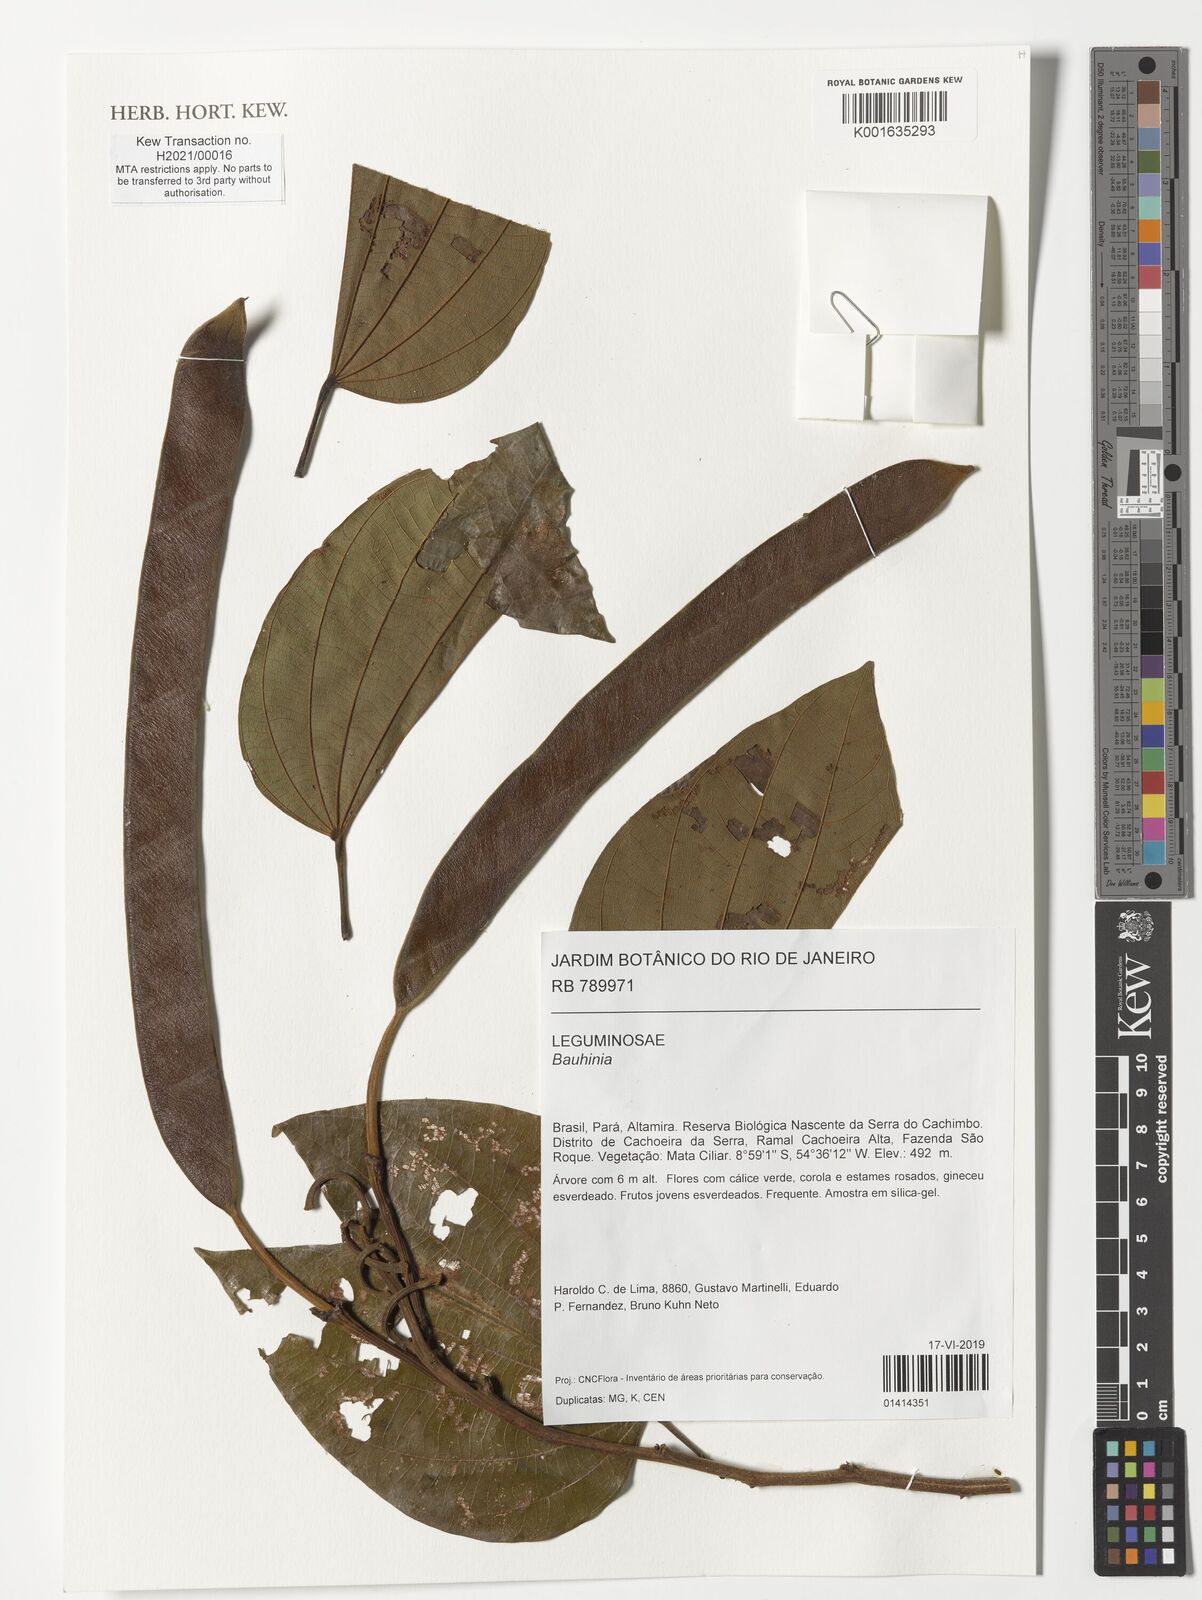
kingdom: Plantae
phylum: Tracheophyta
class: Magnoliopsida
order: Fabales
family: Fabaceae
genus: Bauhinia
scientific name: Bauhinia
